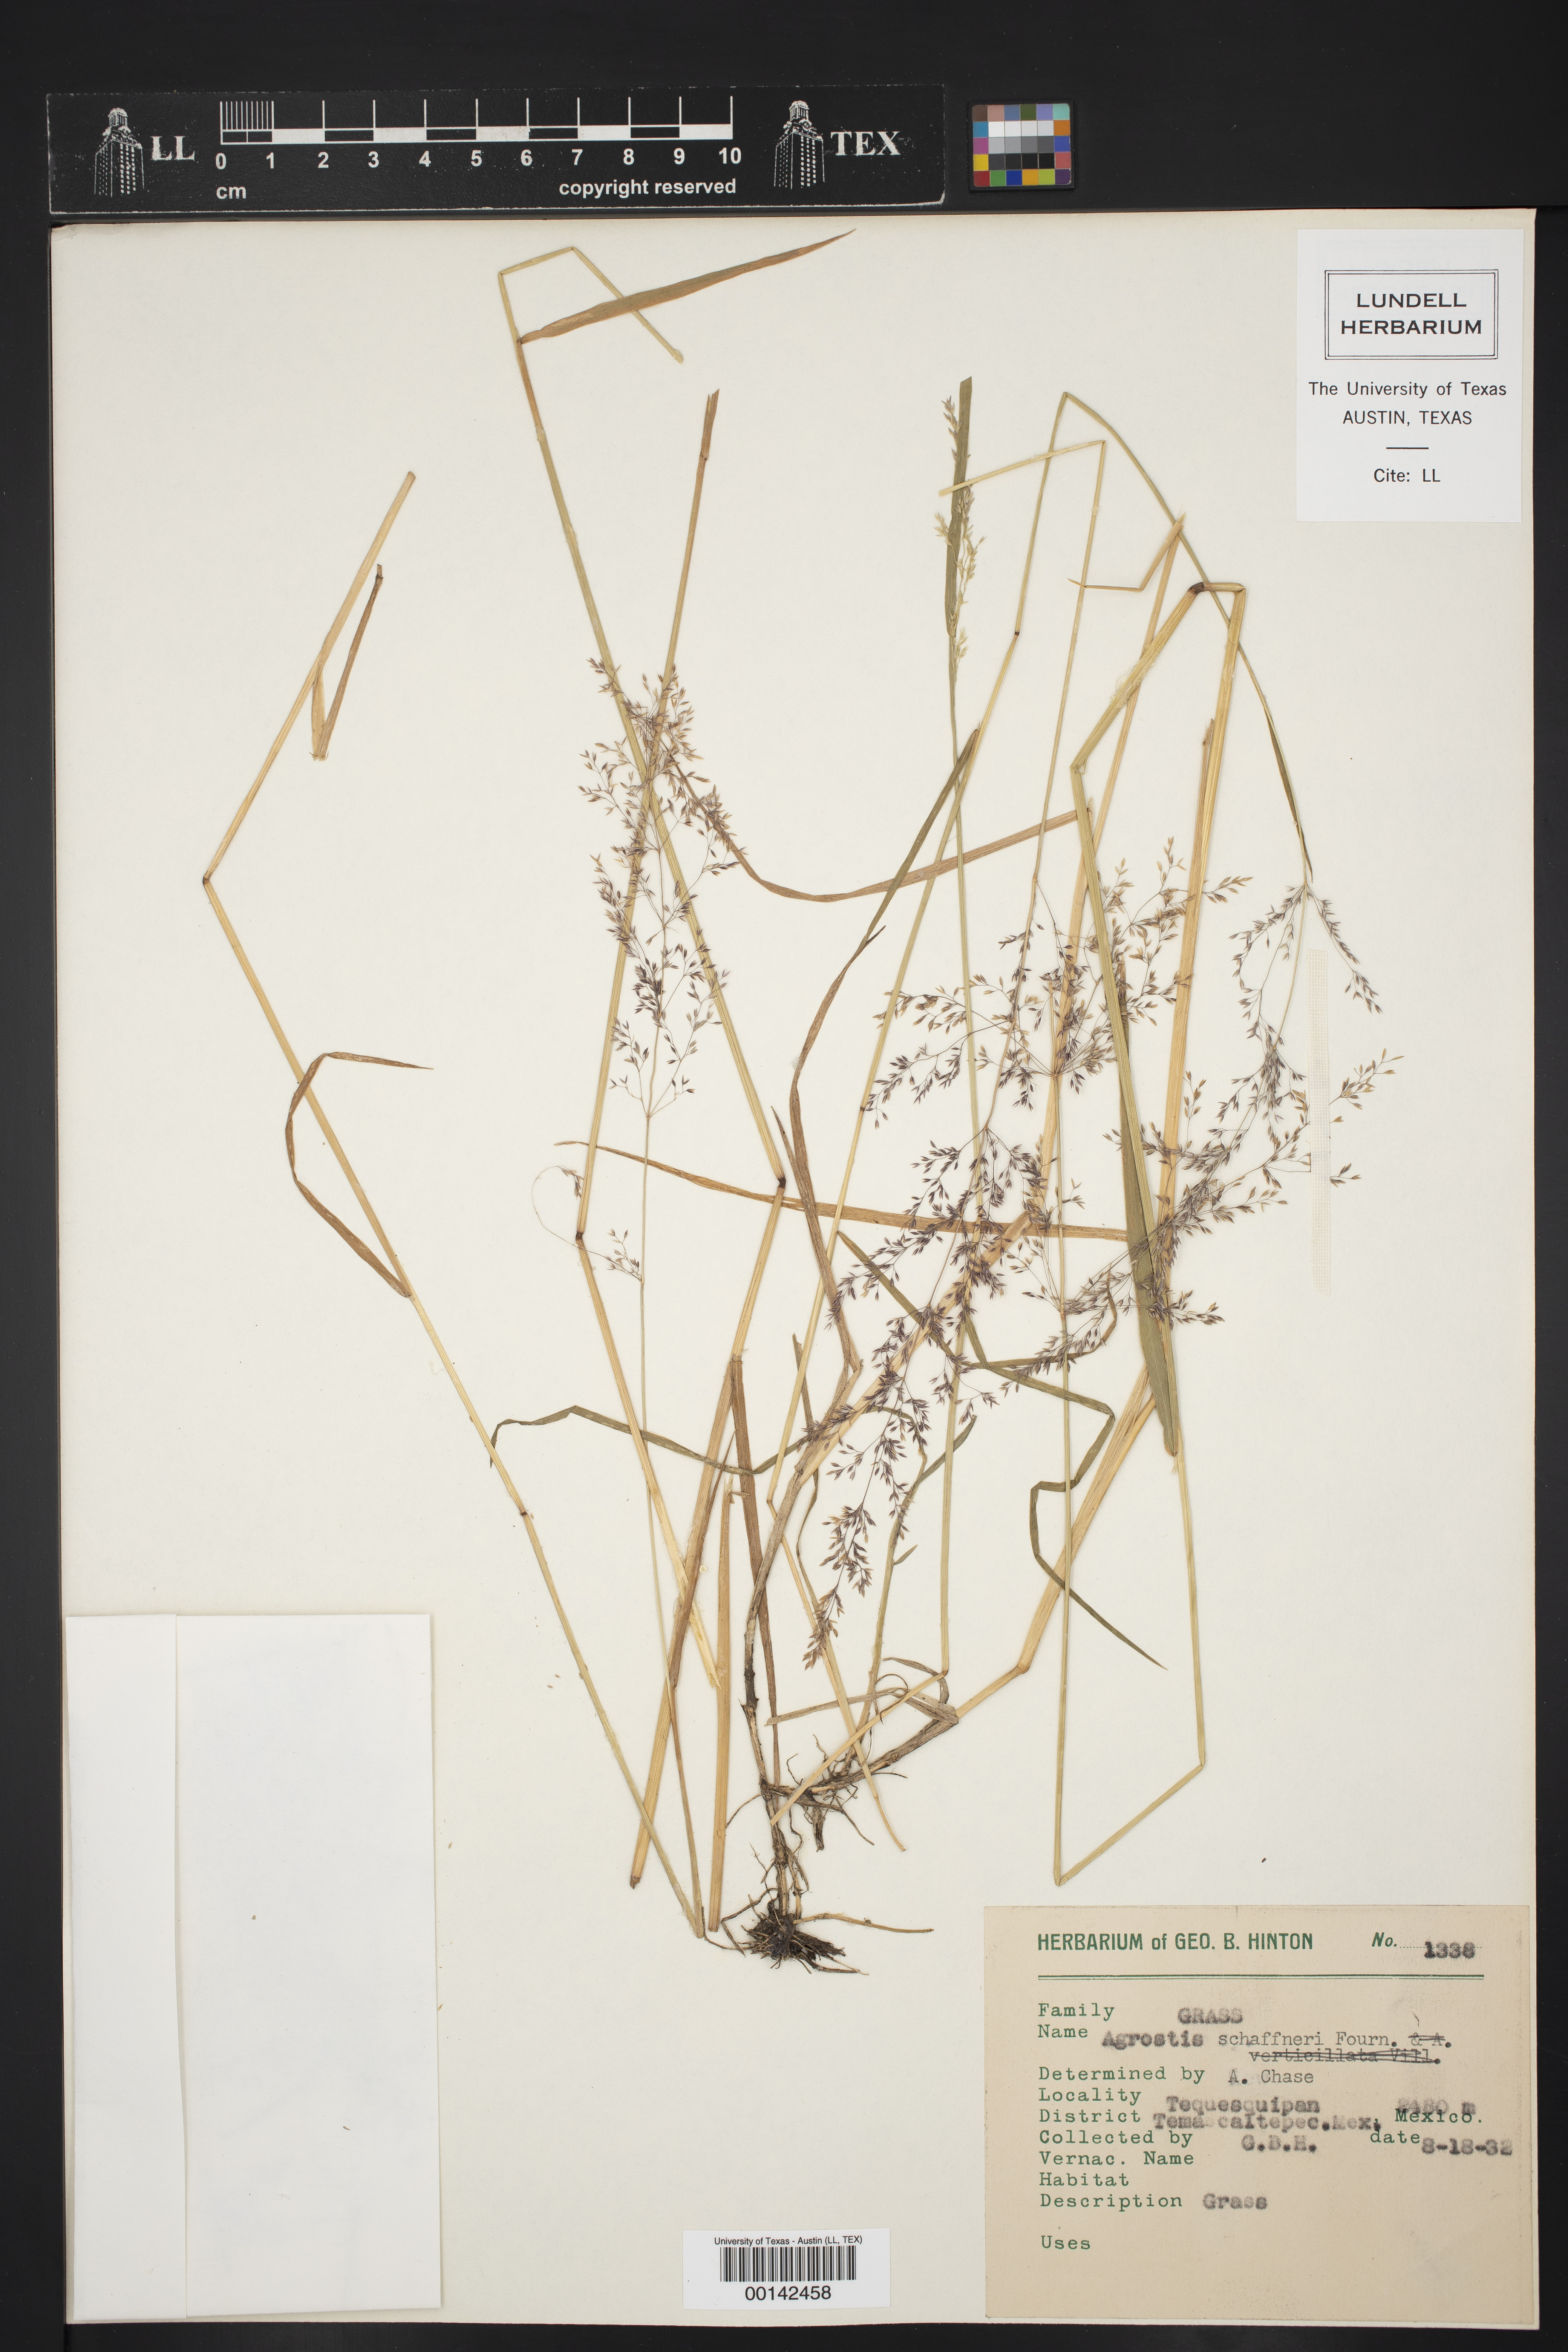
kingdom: Plantae
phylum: Tracheophyta
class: Liliopsida
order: Poales
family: Poaceae
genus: Agrostis
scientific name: Agrostis schaffneri
